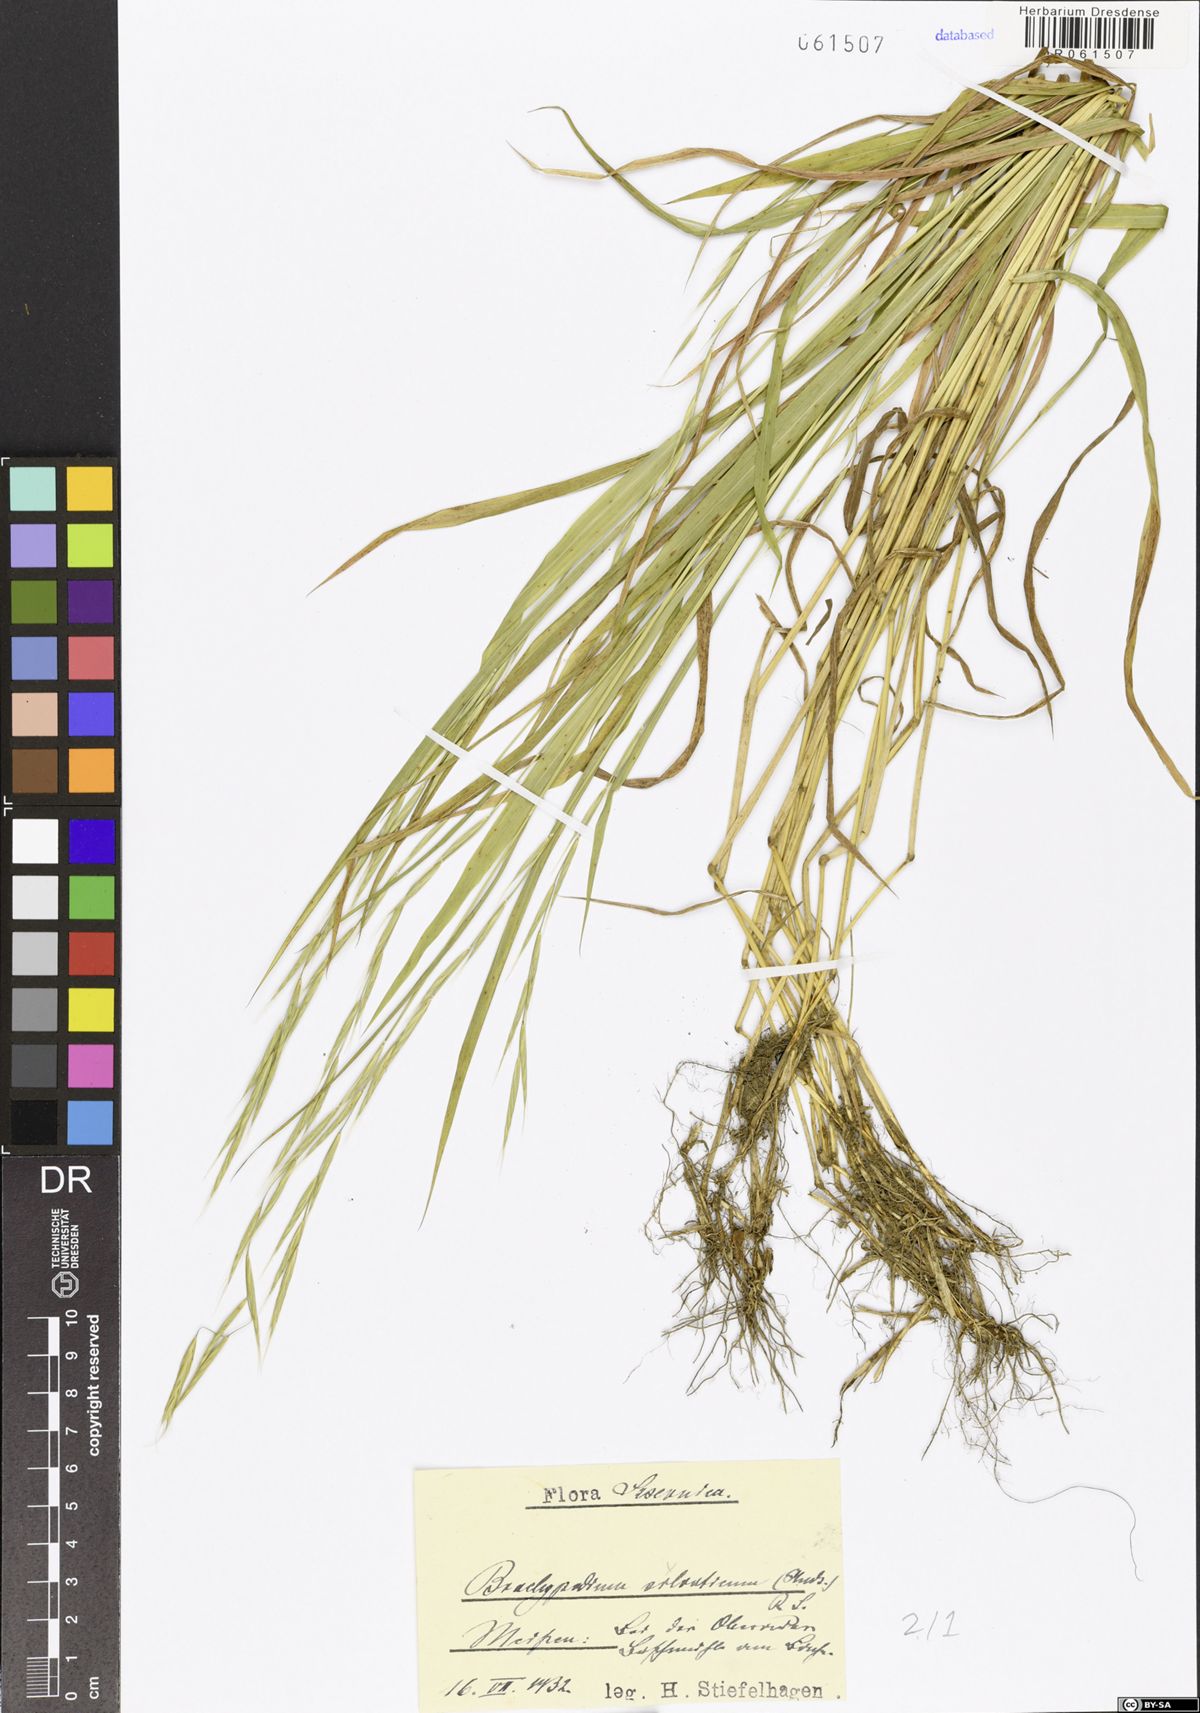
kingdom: Plantae
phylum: Tracheophyta
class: Liliopsida
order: Poales
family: Poaceae
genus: Brachypodium
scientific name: Brachypodium sylvaticum
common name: False-brome
